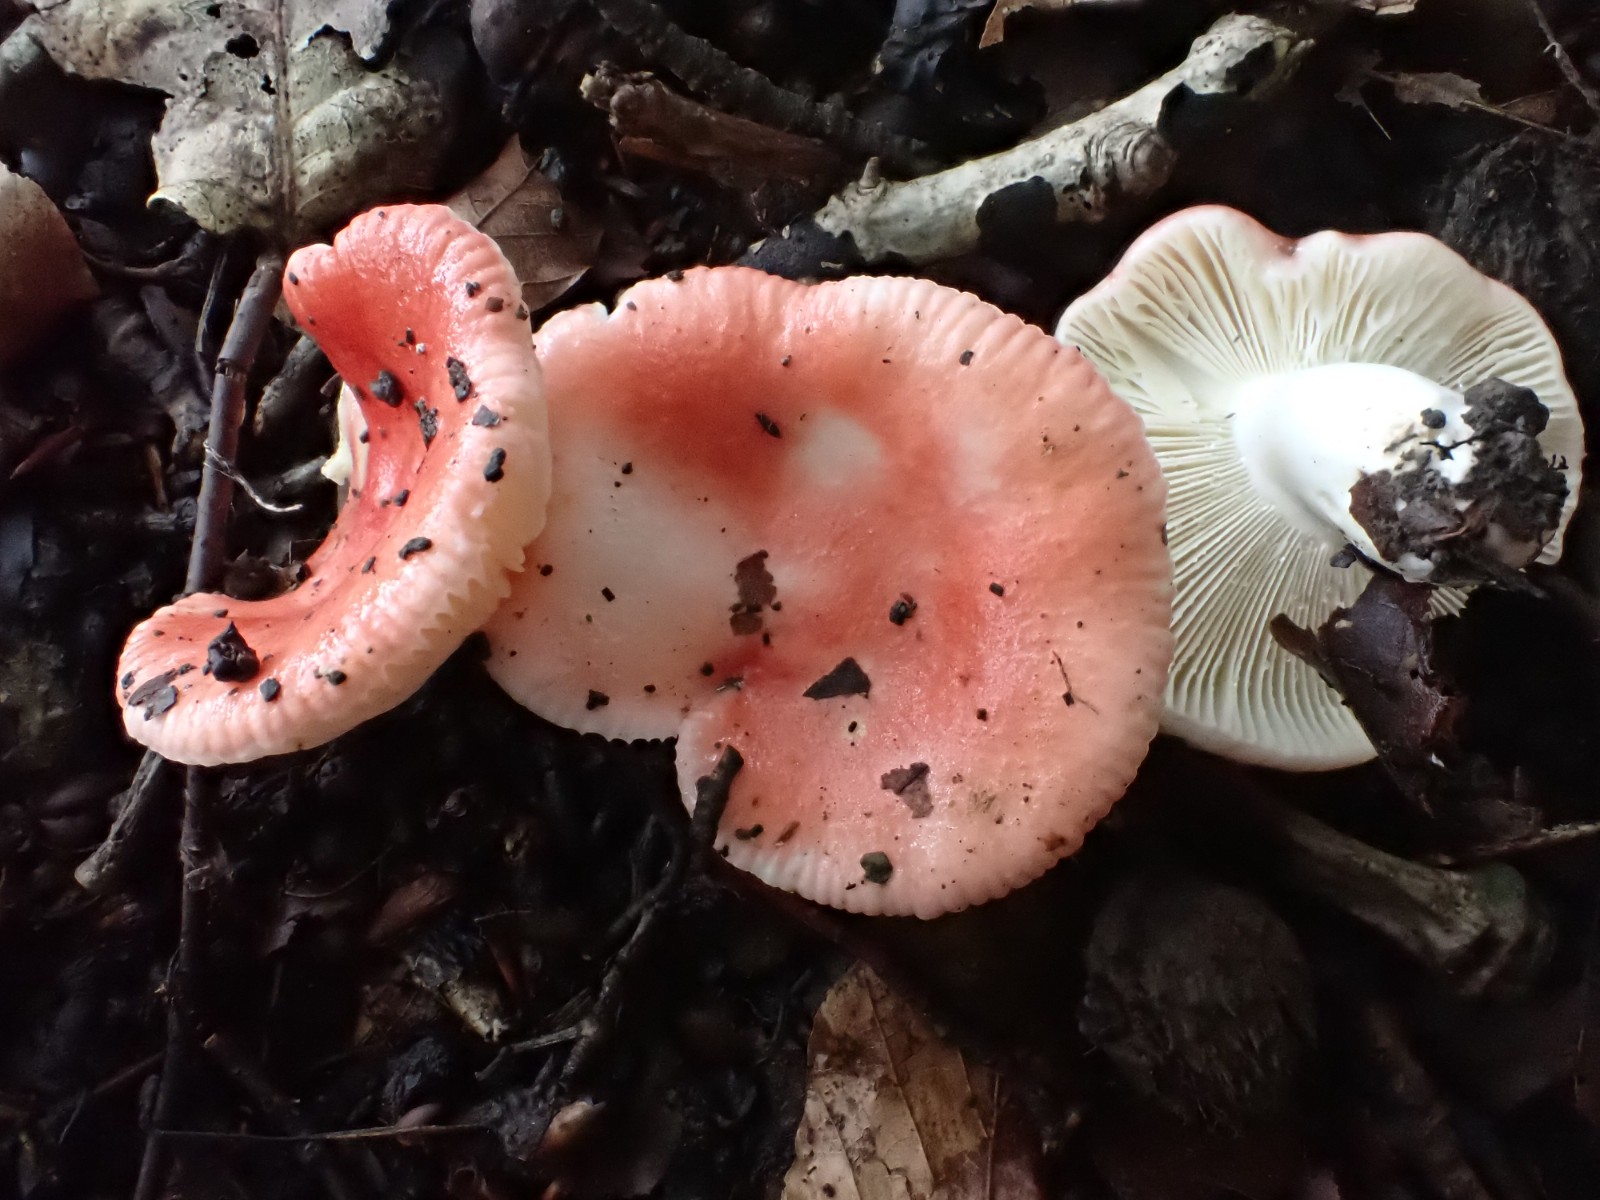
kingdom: Fungi
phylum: Basidiomycota
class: Agaricomycetes
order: Russulales
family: Russulaceae
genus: Russula
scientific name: Russula luteotacta
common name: gulplettet gift-skørhat
